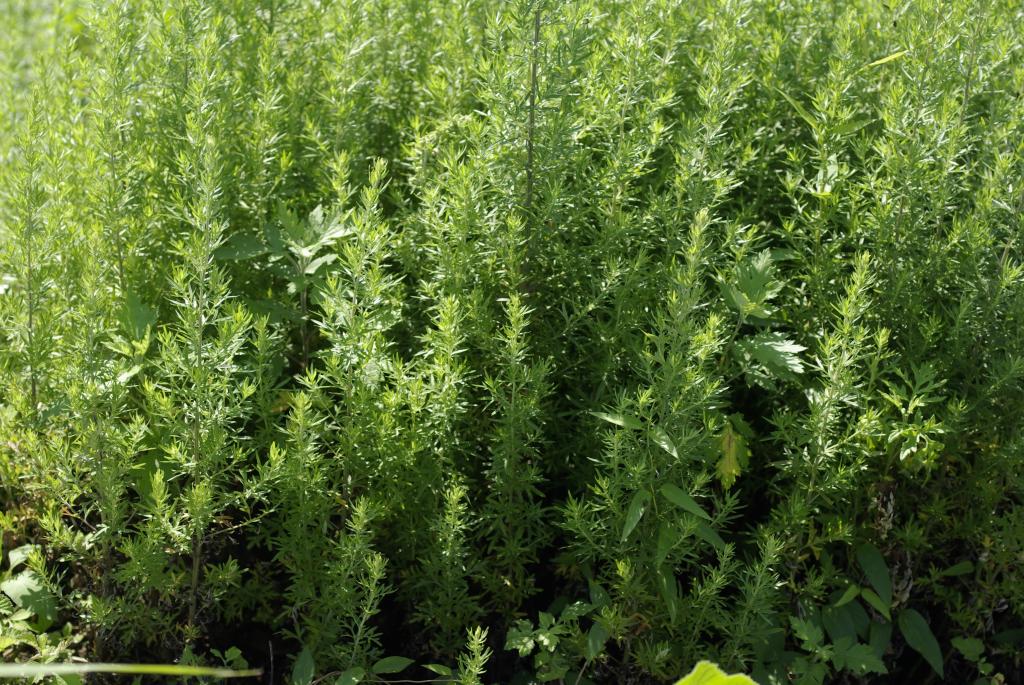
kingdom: Plantae
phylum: Tracheophyta
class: Magnoliopsida
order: Asterales
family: Asteraceae
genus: Artemisia
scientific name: Artemisia indica
